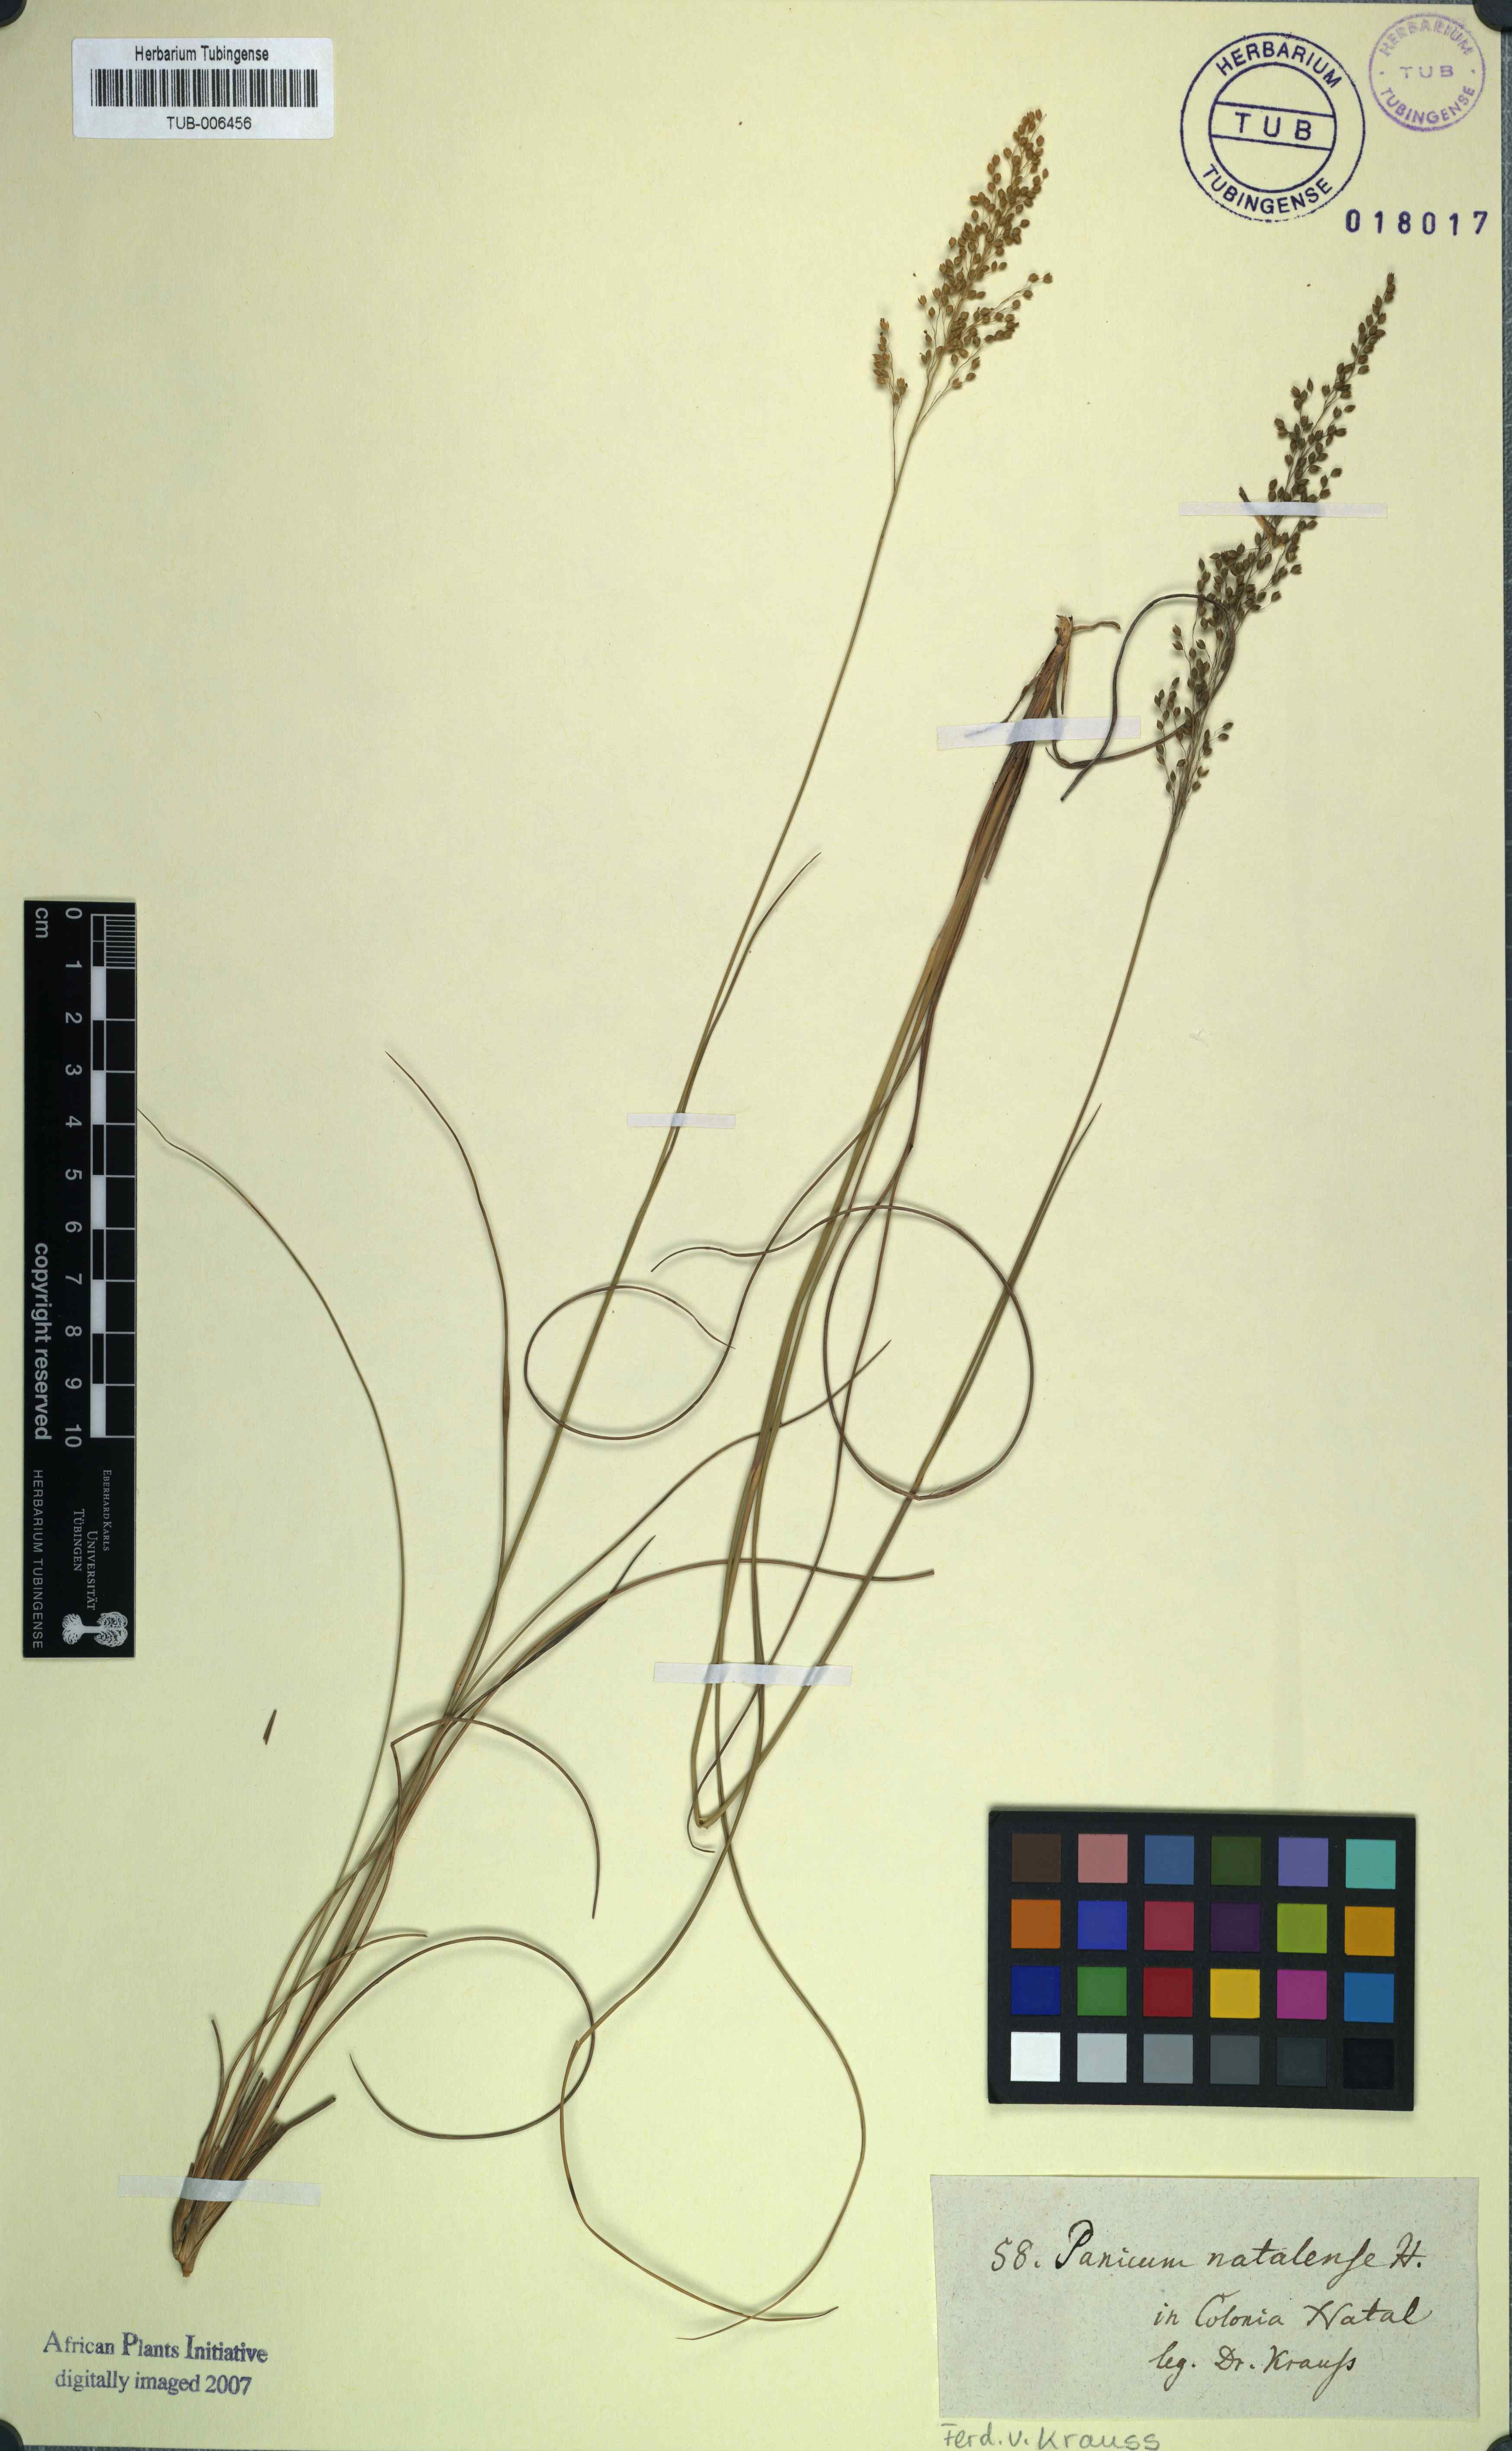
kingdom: Plantae
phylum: Tracheophyta
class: Liliopsida
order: Poales
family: Poaceae
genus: Trichanthecium
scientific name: Trichanthecium natalense
